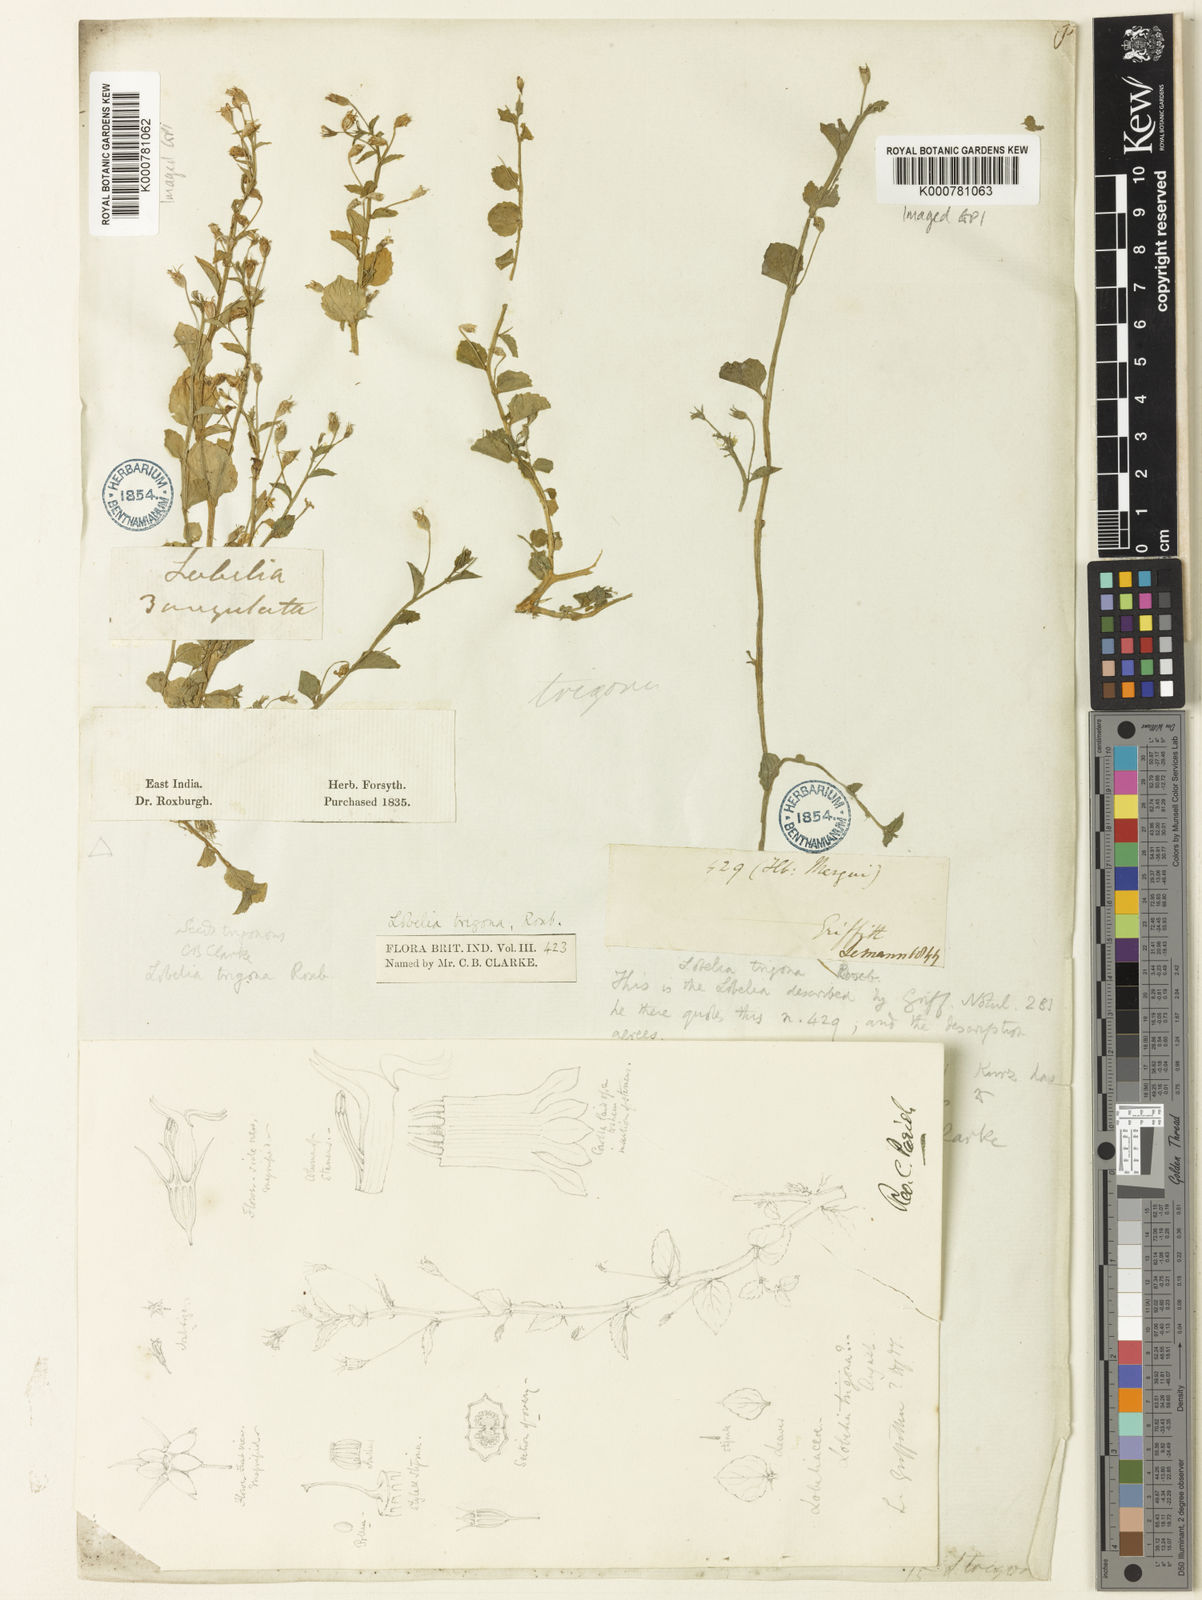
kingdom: Plantae
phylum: Tracheophyta
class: Magnoliopsida
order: Asterales
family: Campanulaceae
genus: Lobelia
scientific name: Lobelia alsinoides
